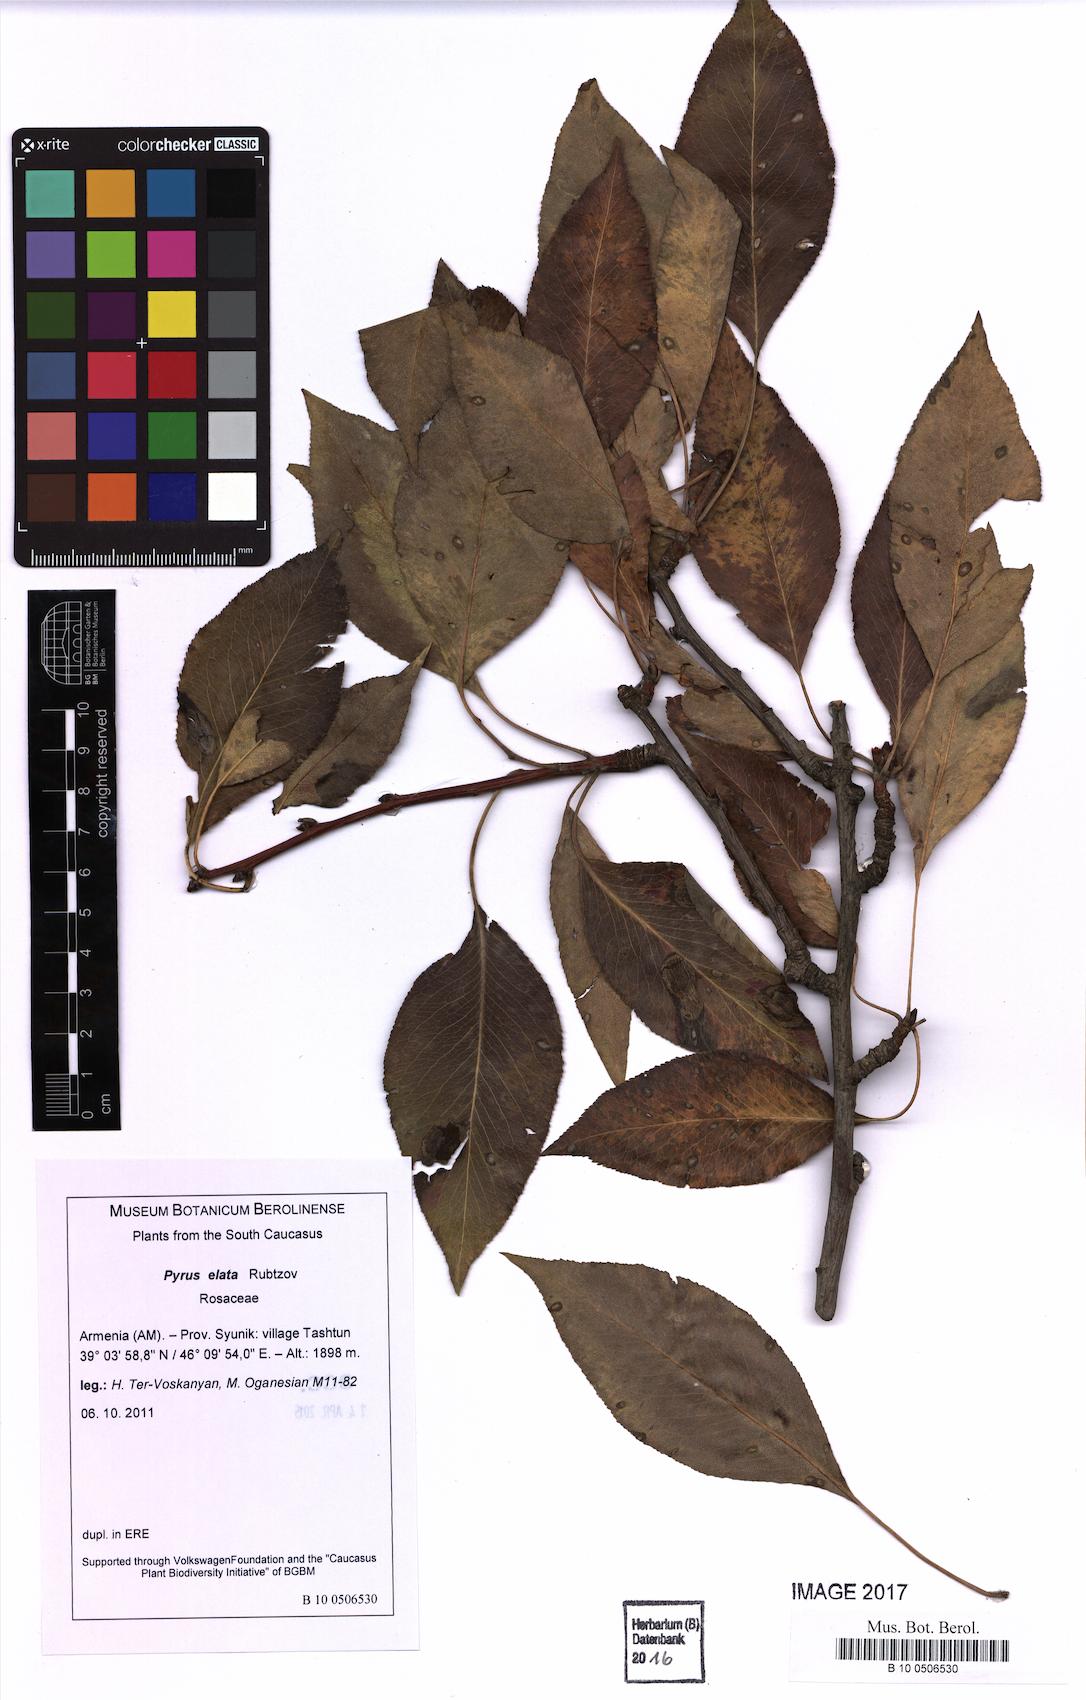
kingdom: Plantae
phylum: Tracheophyta
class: Magnoliopsida
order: Rosales
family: Rosaceae
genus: Pyrus
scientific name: Pyrus communis
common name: Pear
